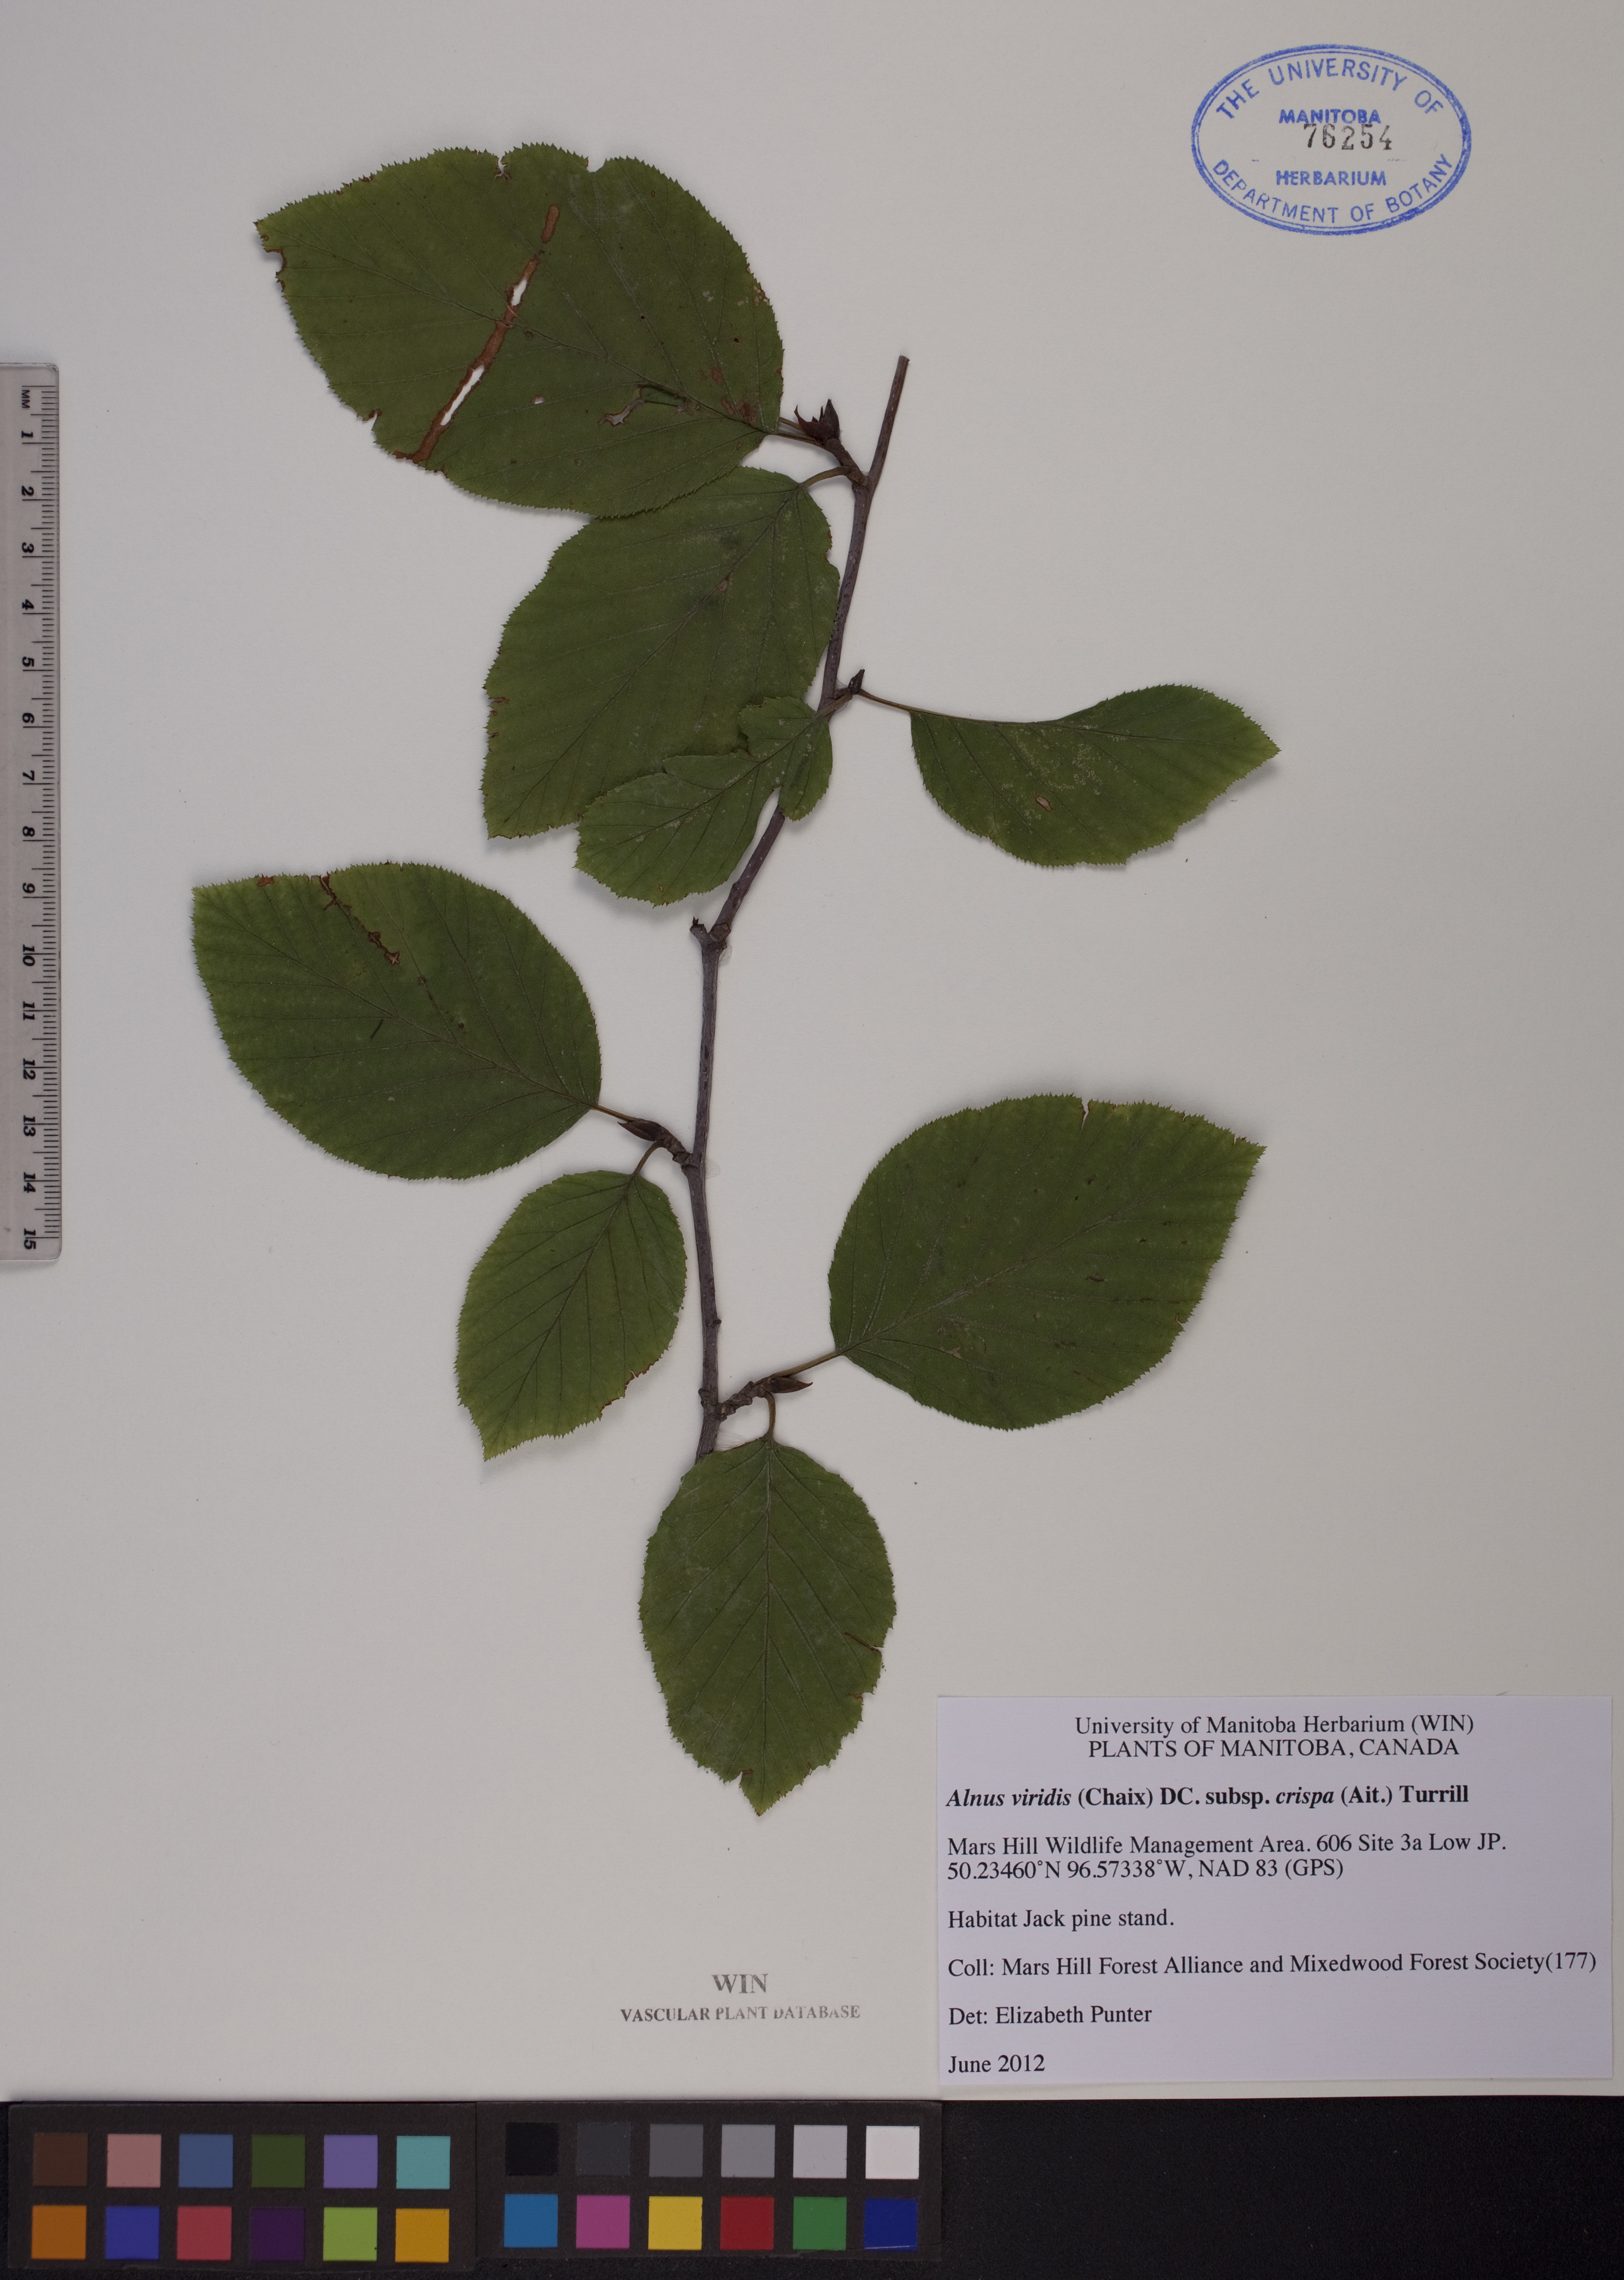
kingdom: Plantae
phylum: Tracheophyta
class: Magnoliopsida
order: Fagales
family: Betulaceae
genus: Alnus
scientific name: Alnus alnobetula
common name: Green alder
